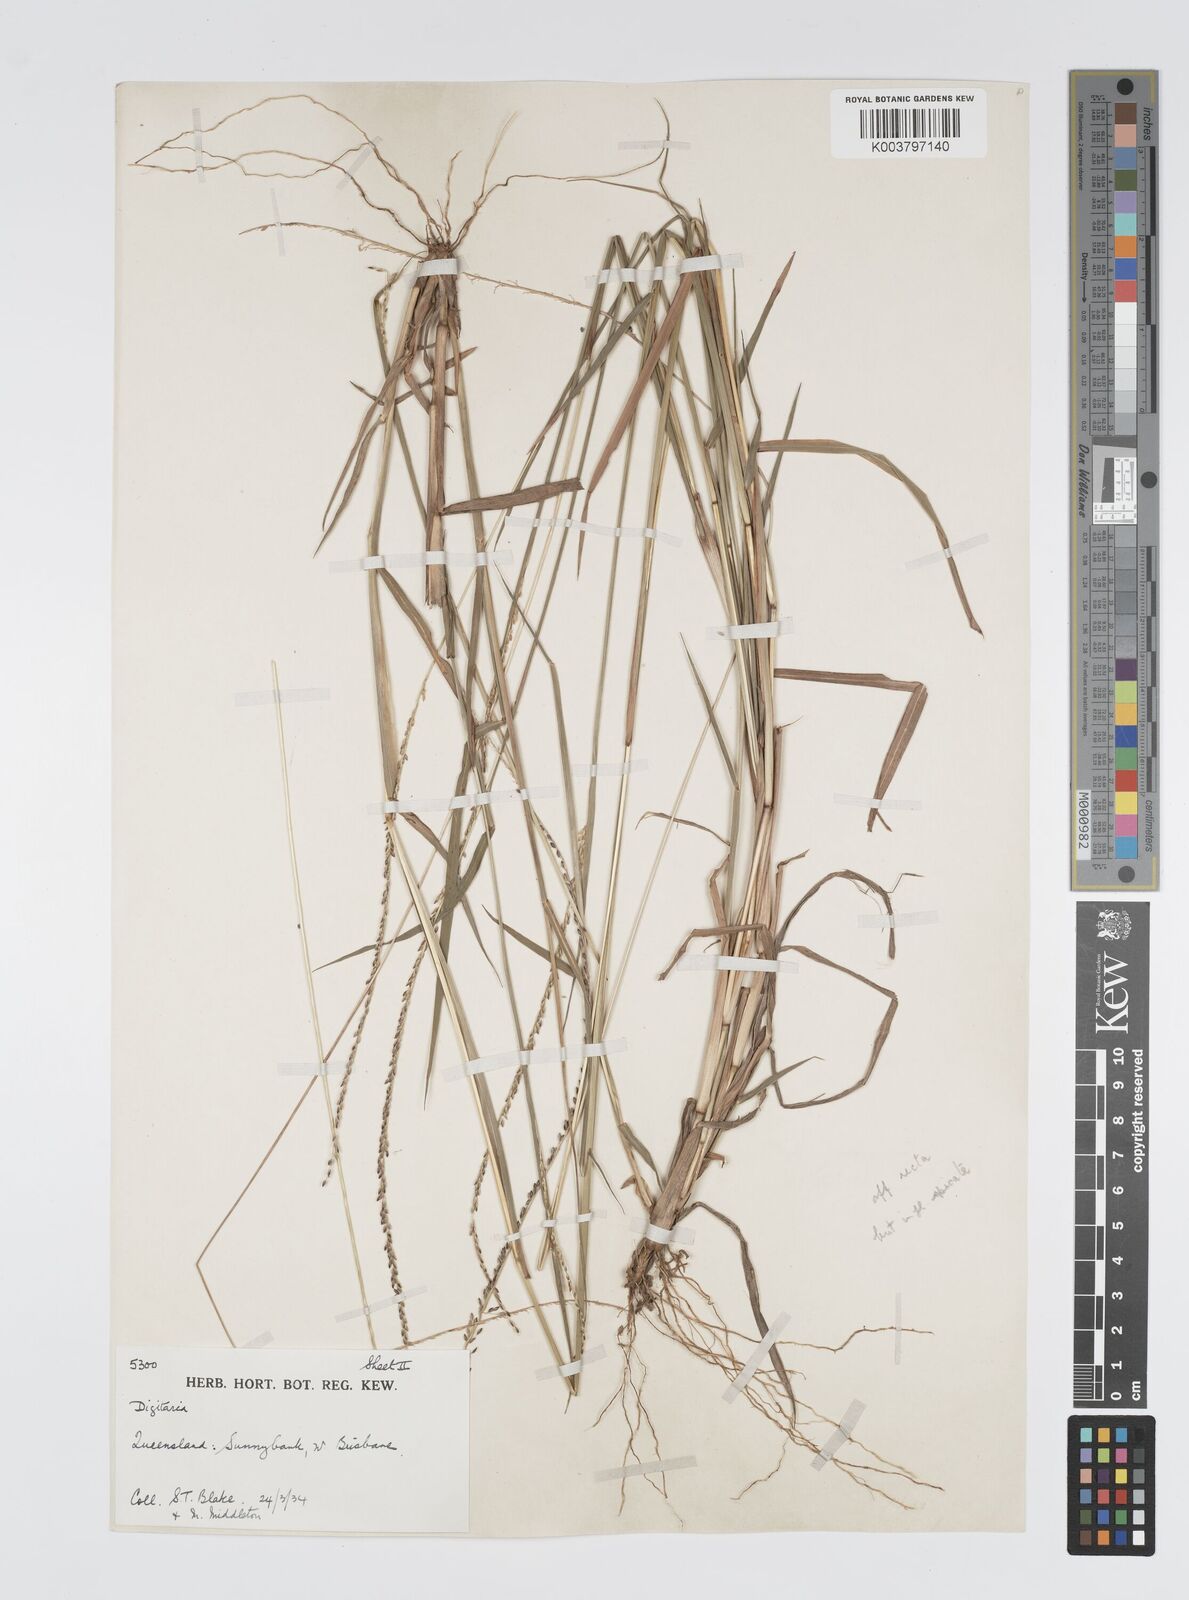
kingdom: Plantae
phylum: Tracheophyta
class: Liliopsida
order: Poales
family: Poaceae
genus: Digitaria
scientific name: Digitaria spec
